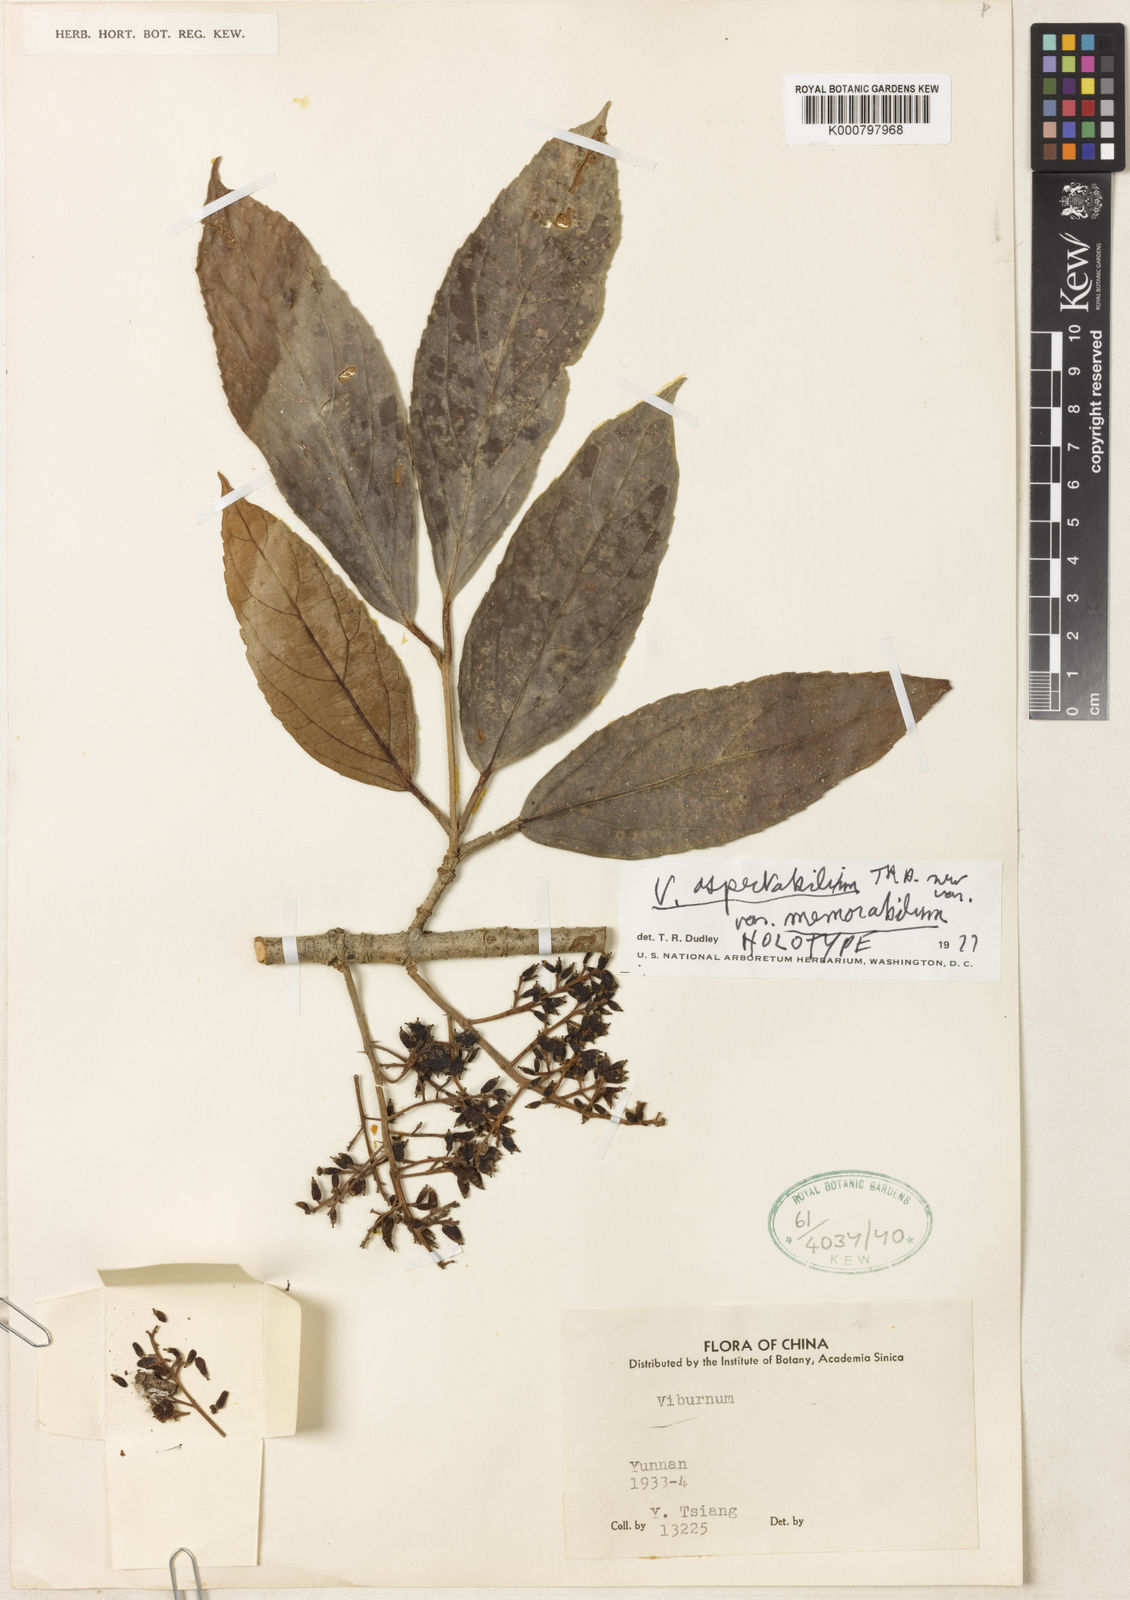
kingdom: Plantae
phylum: Tracheophyta
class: Magnoliopsida
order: Dipsacales
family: Viburnaceae
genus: Viburnum
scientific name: Viburnum
